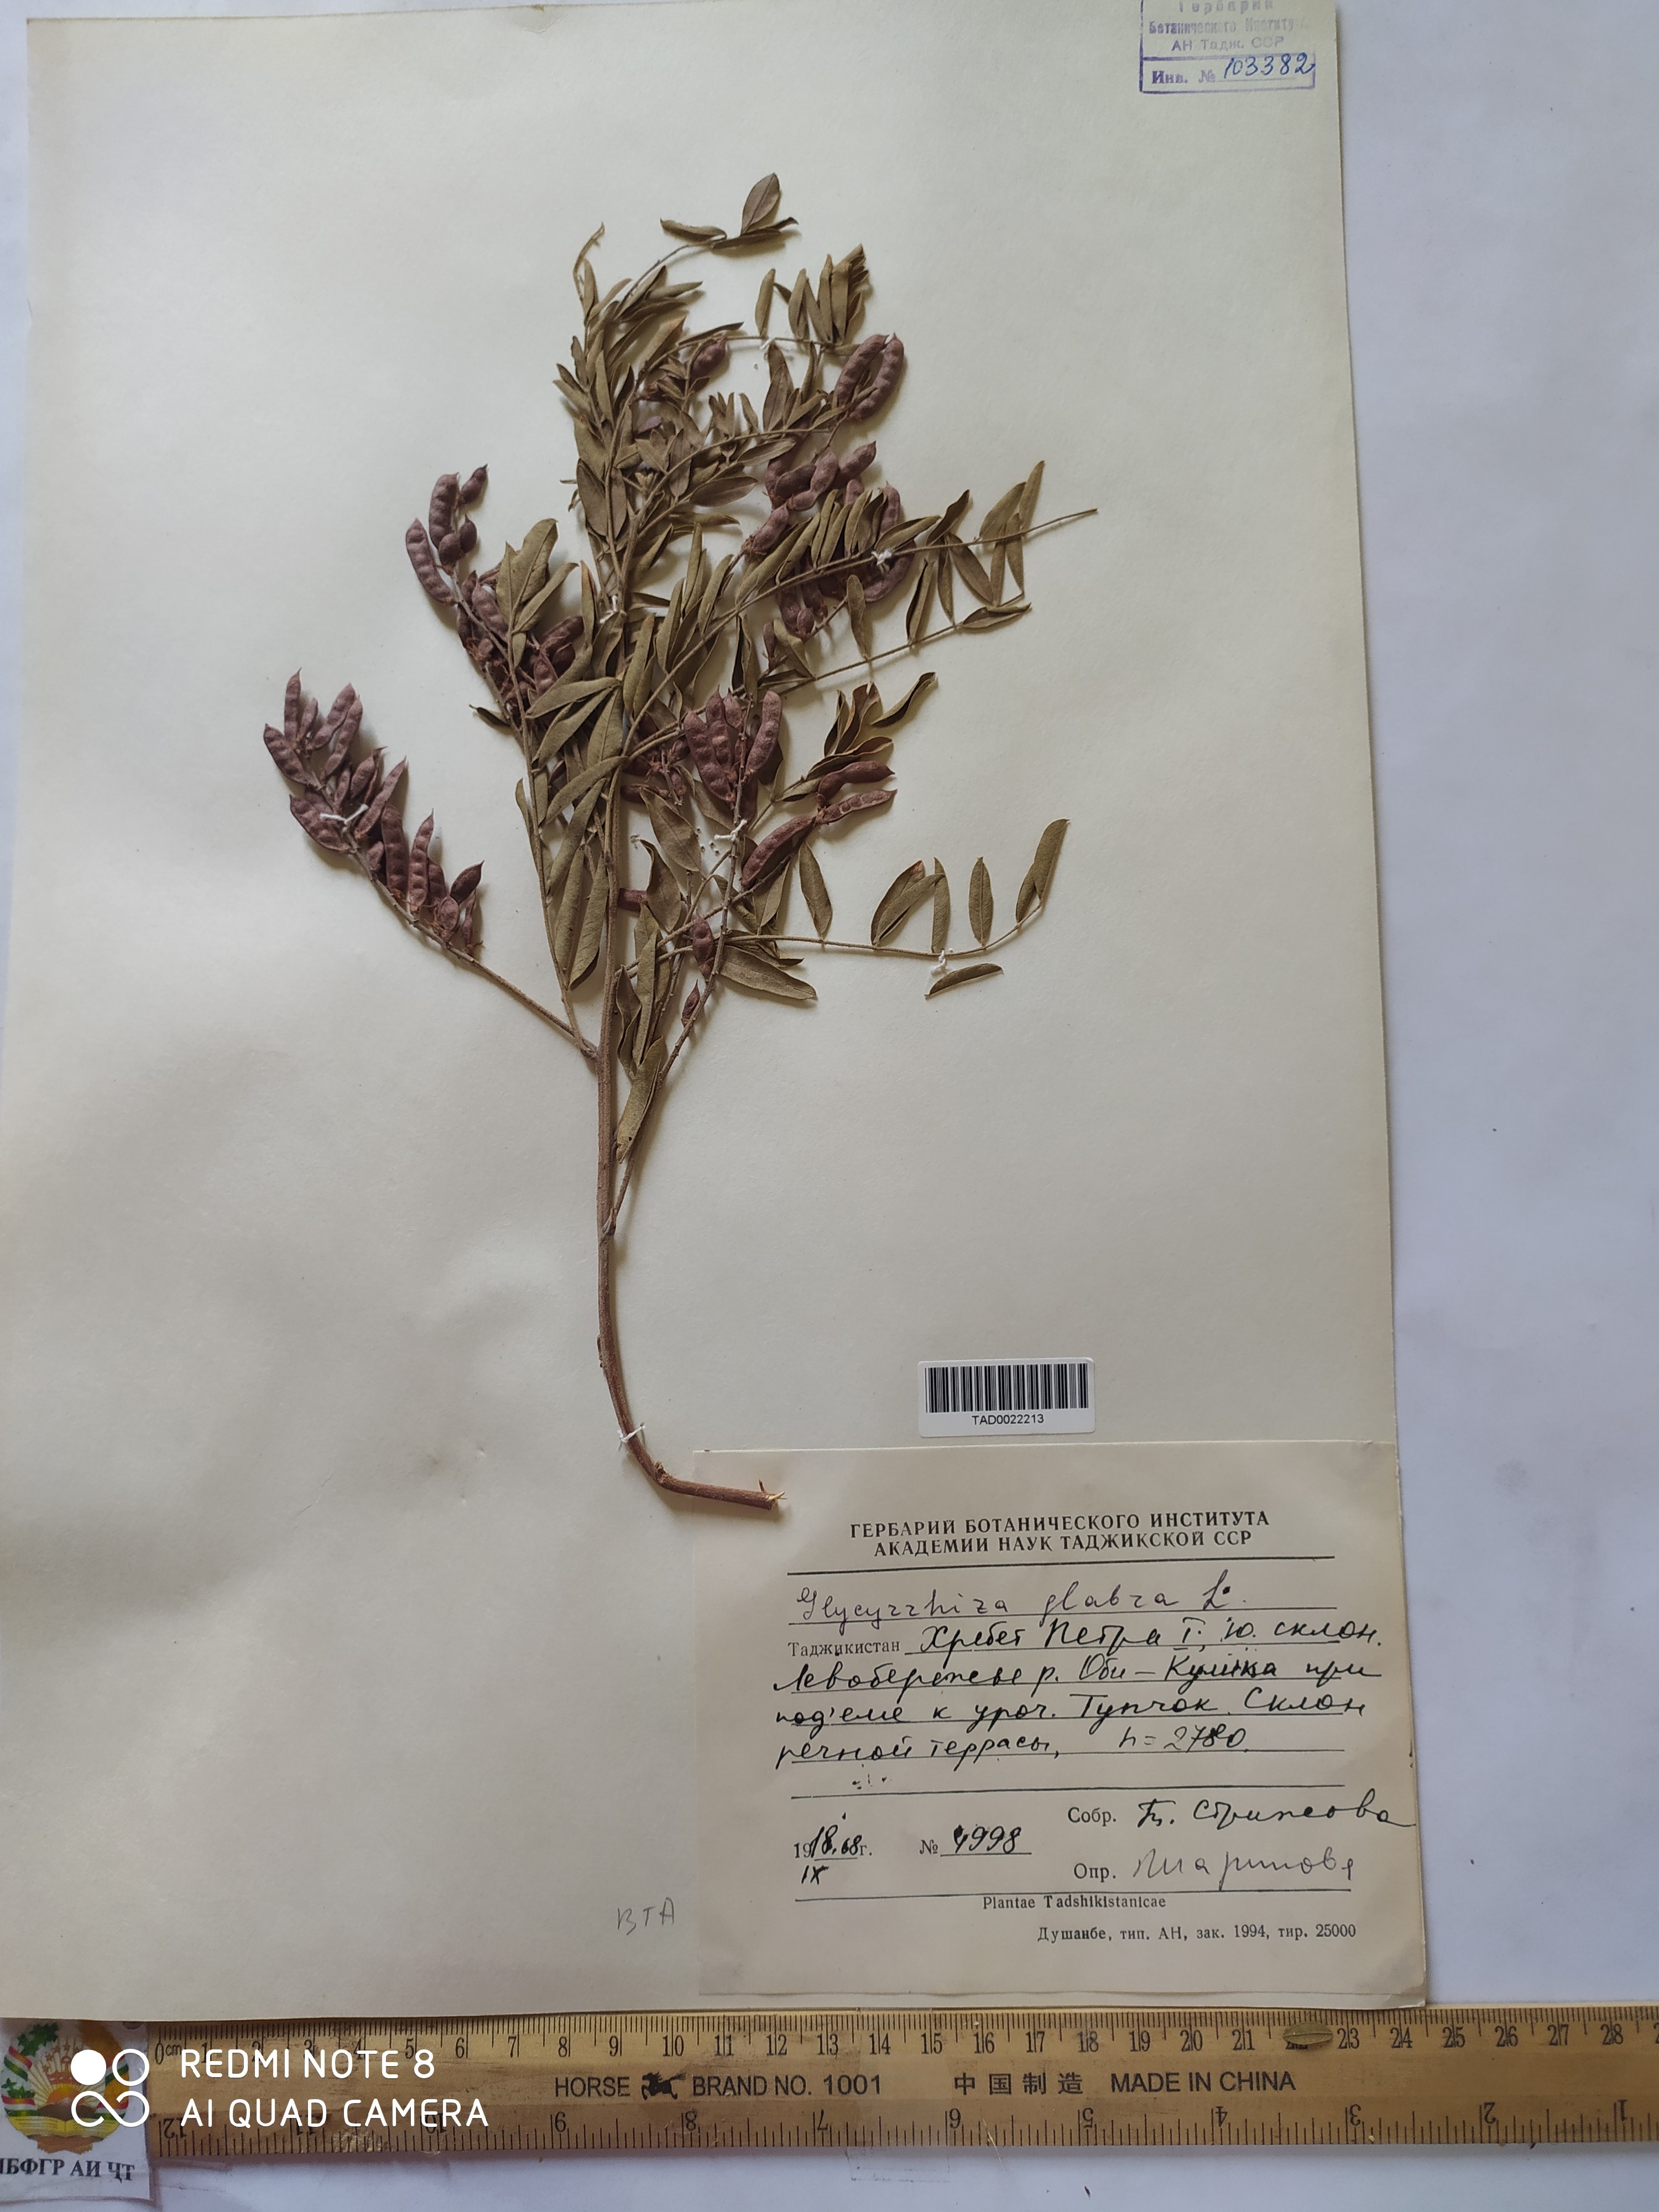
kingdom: Plantae
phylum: Tracheophyta
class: Magnoliopsida
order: Fabales
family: Fabaceae
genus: Glycyrrhiza
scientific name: Glycyrrhiza glabra
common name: Liquorice
